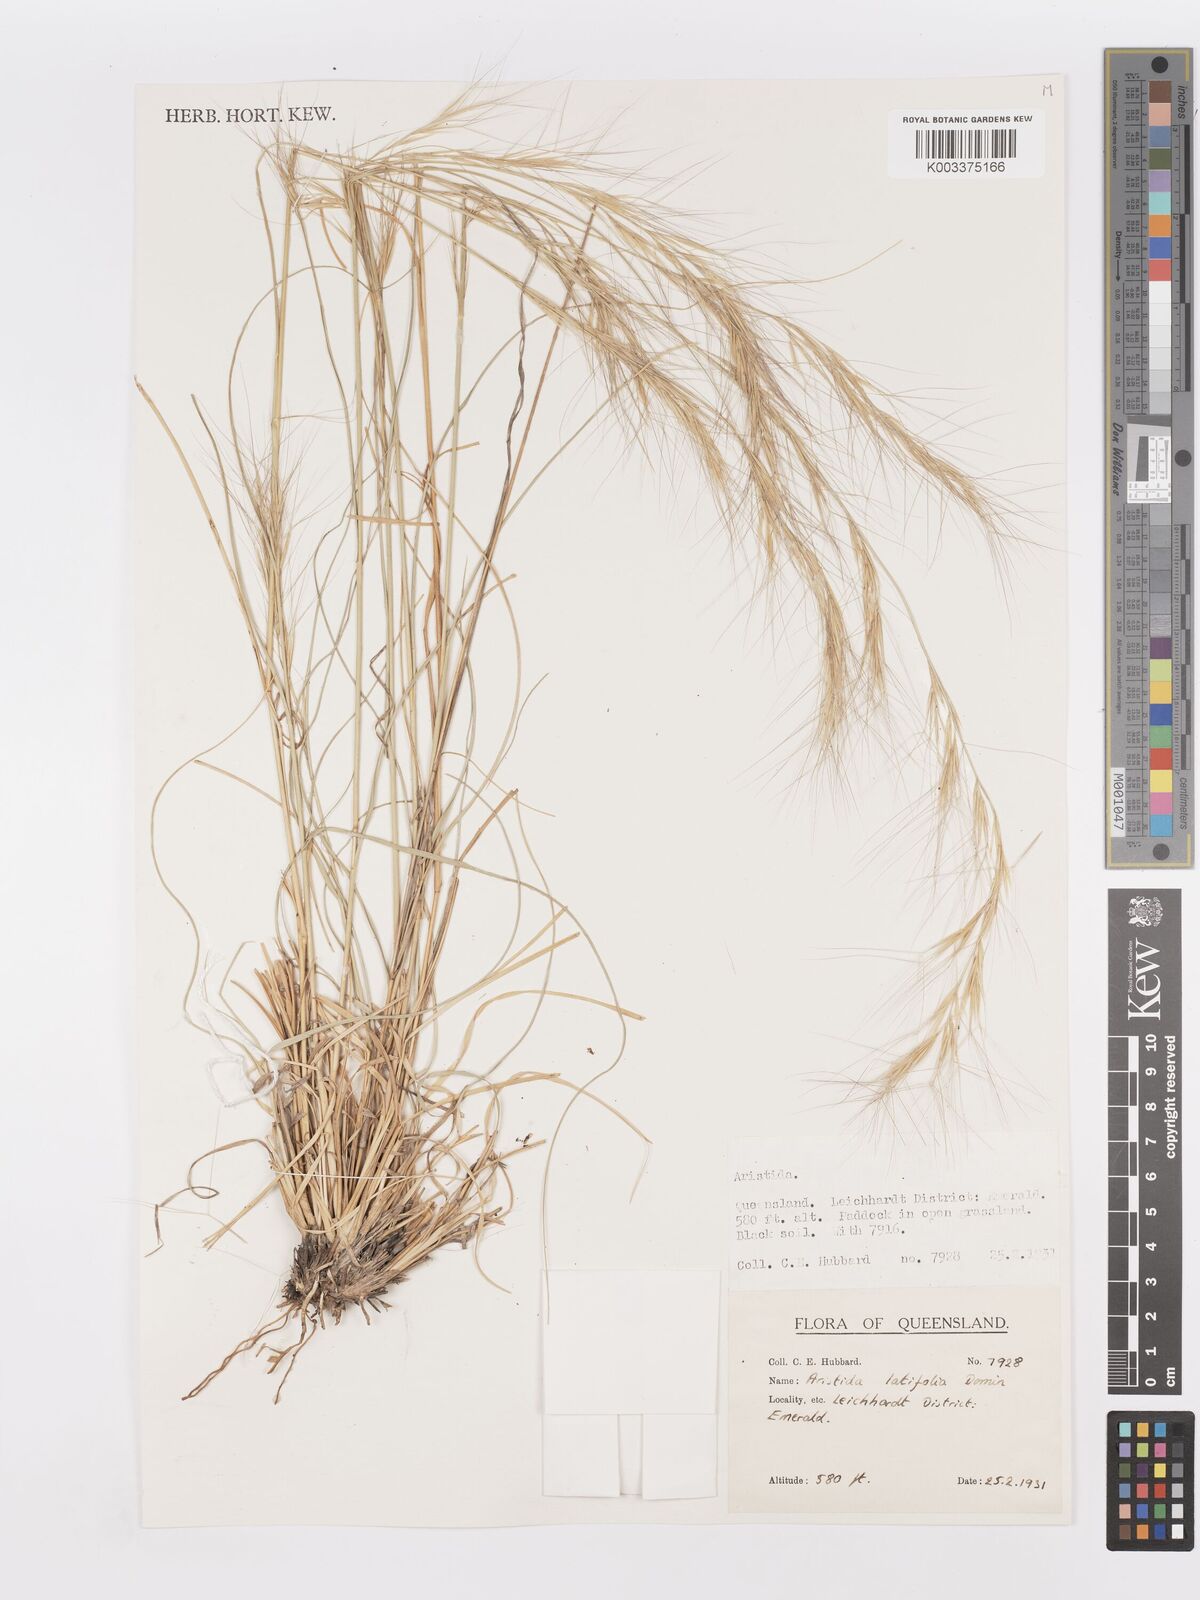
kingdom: Plantae
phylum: Tracheophyta
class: Liliopsida
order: Poales
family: Poaceae
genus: Aristida
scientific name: Aristida latifolia
